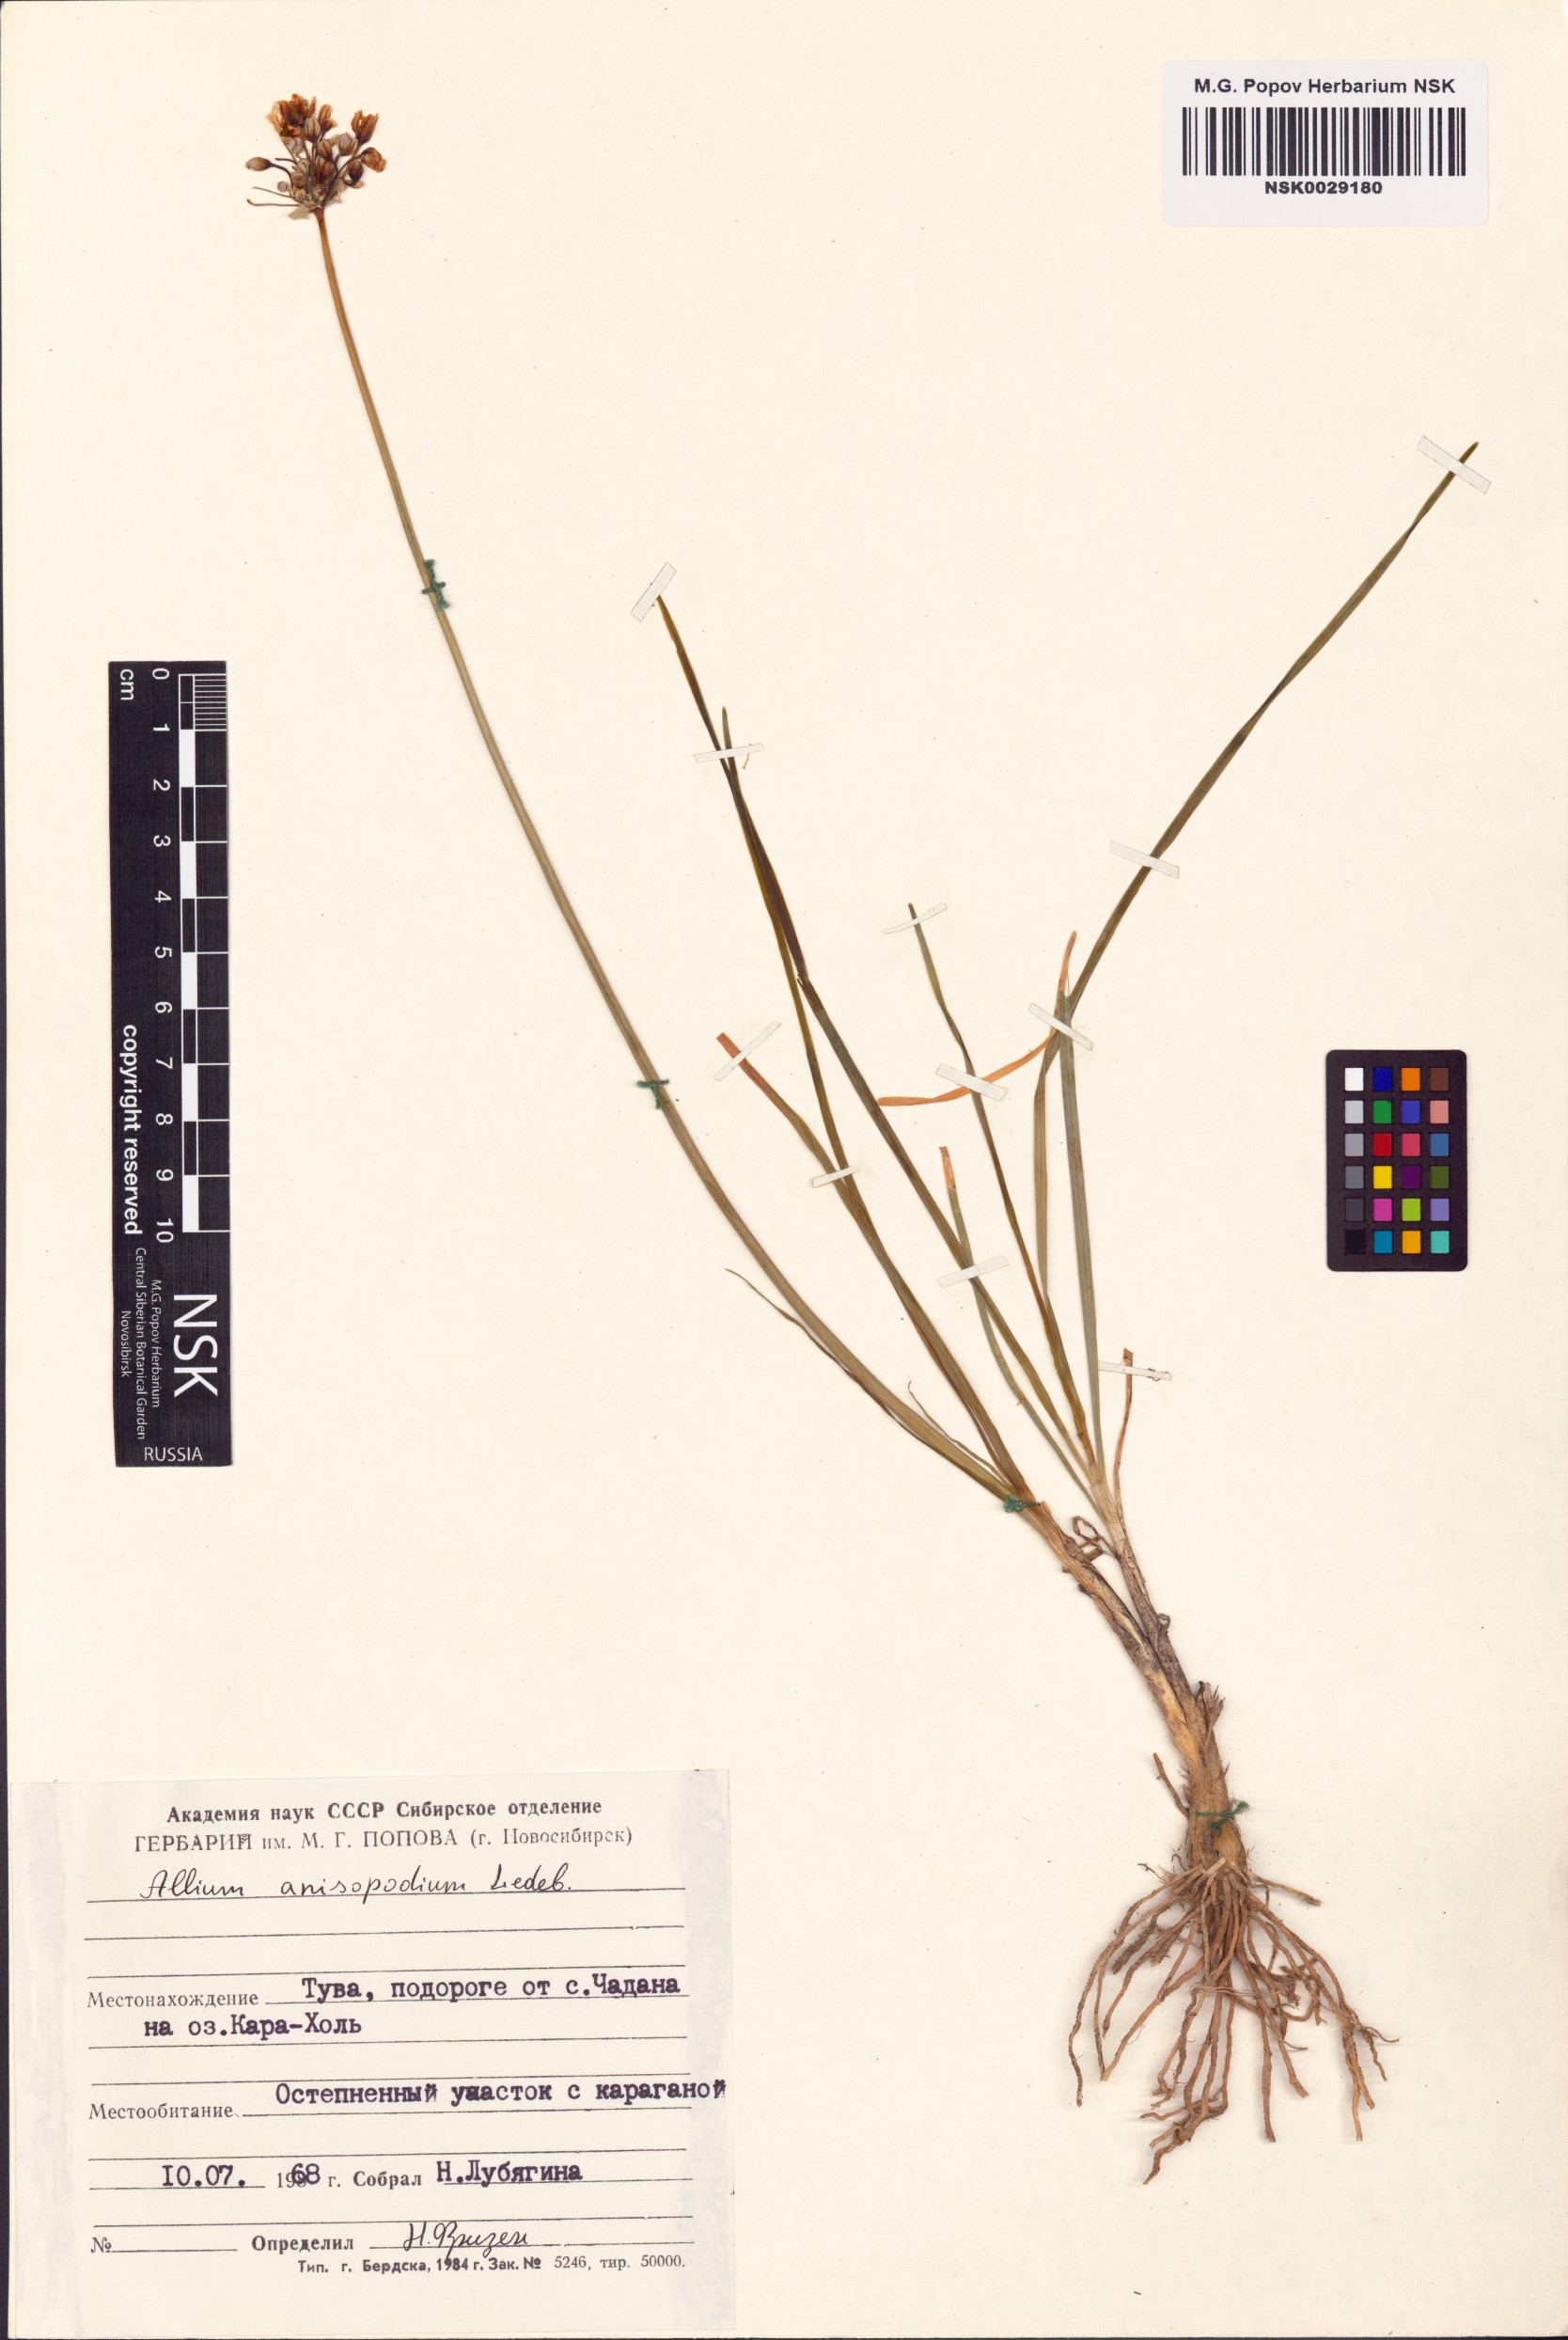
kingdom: Plantae
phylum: Tracheophyta
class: Liliopsida
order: Asparagales
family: Amaryllidaceae
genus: Allium
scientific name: Allium anisopodium
